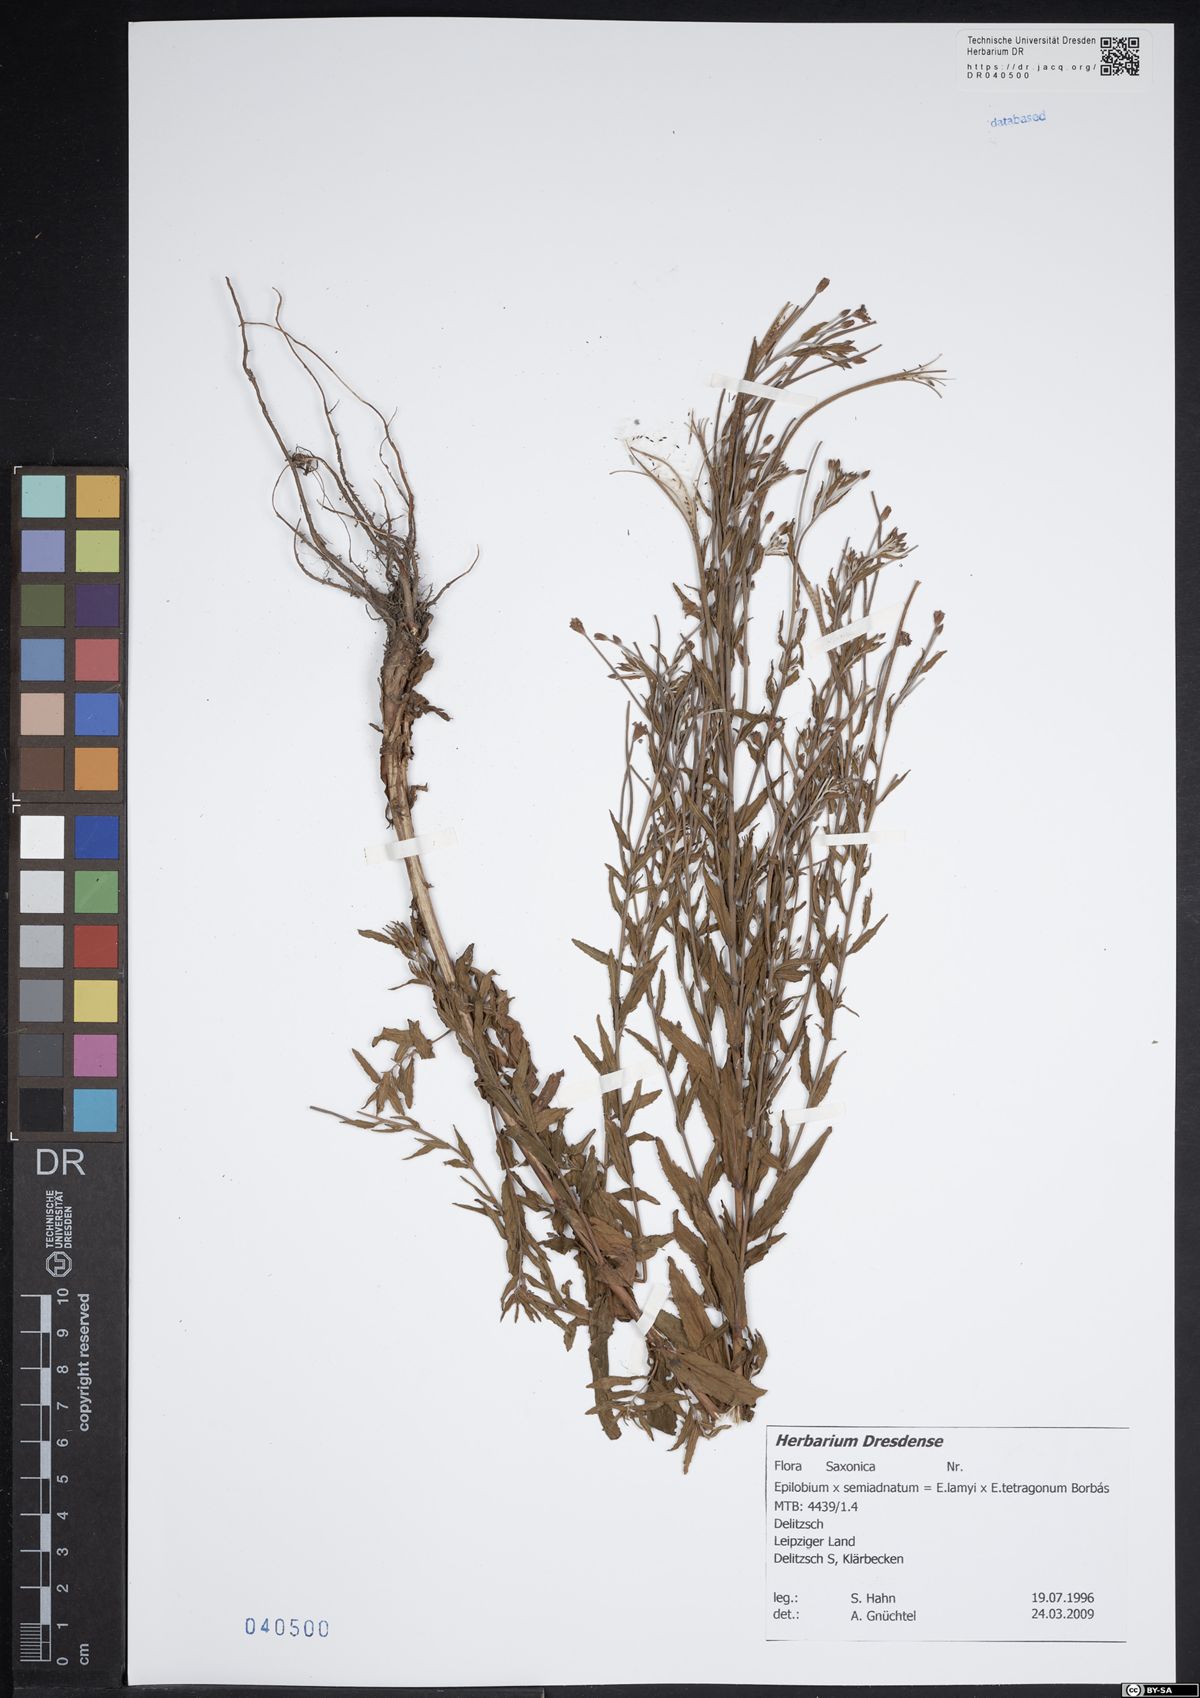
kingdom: Plantae
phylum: Tracheophyta
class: Magnoliopsida
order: Myrtales
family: Onagraceae
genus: Epilobium
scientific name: Epilobium semiadnatum
